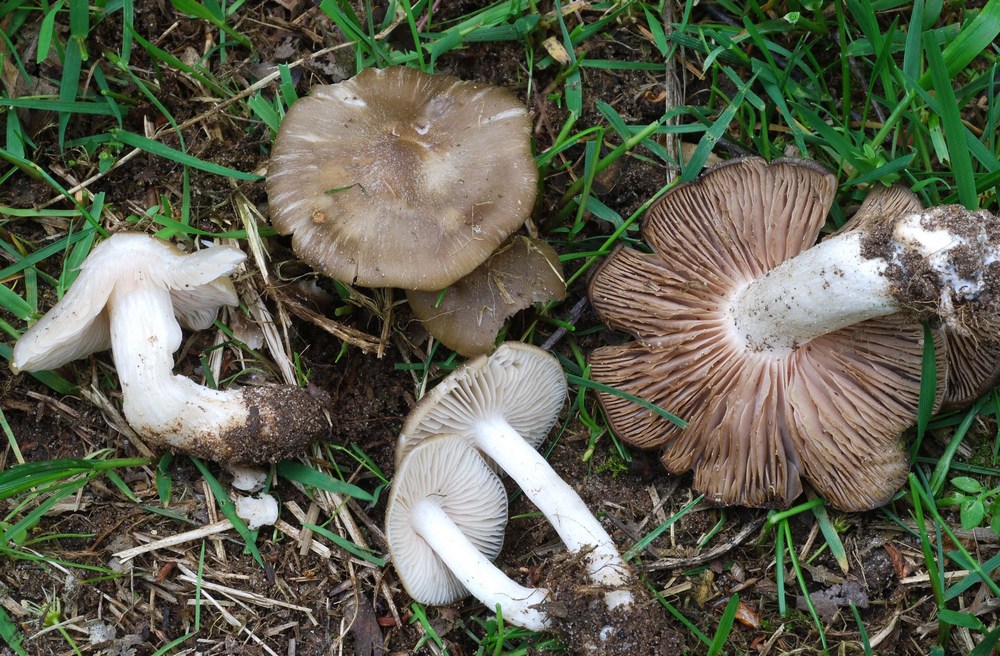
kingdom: Fungi
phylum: Basidiomycota
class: Agaricomycetes
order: Agaricales
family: Entolomataceae
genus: Entoloma
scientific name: Entoloma clypeatum
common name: flammet rødblad
